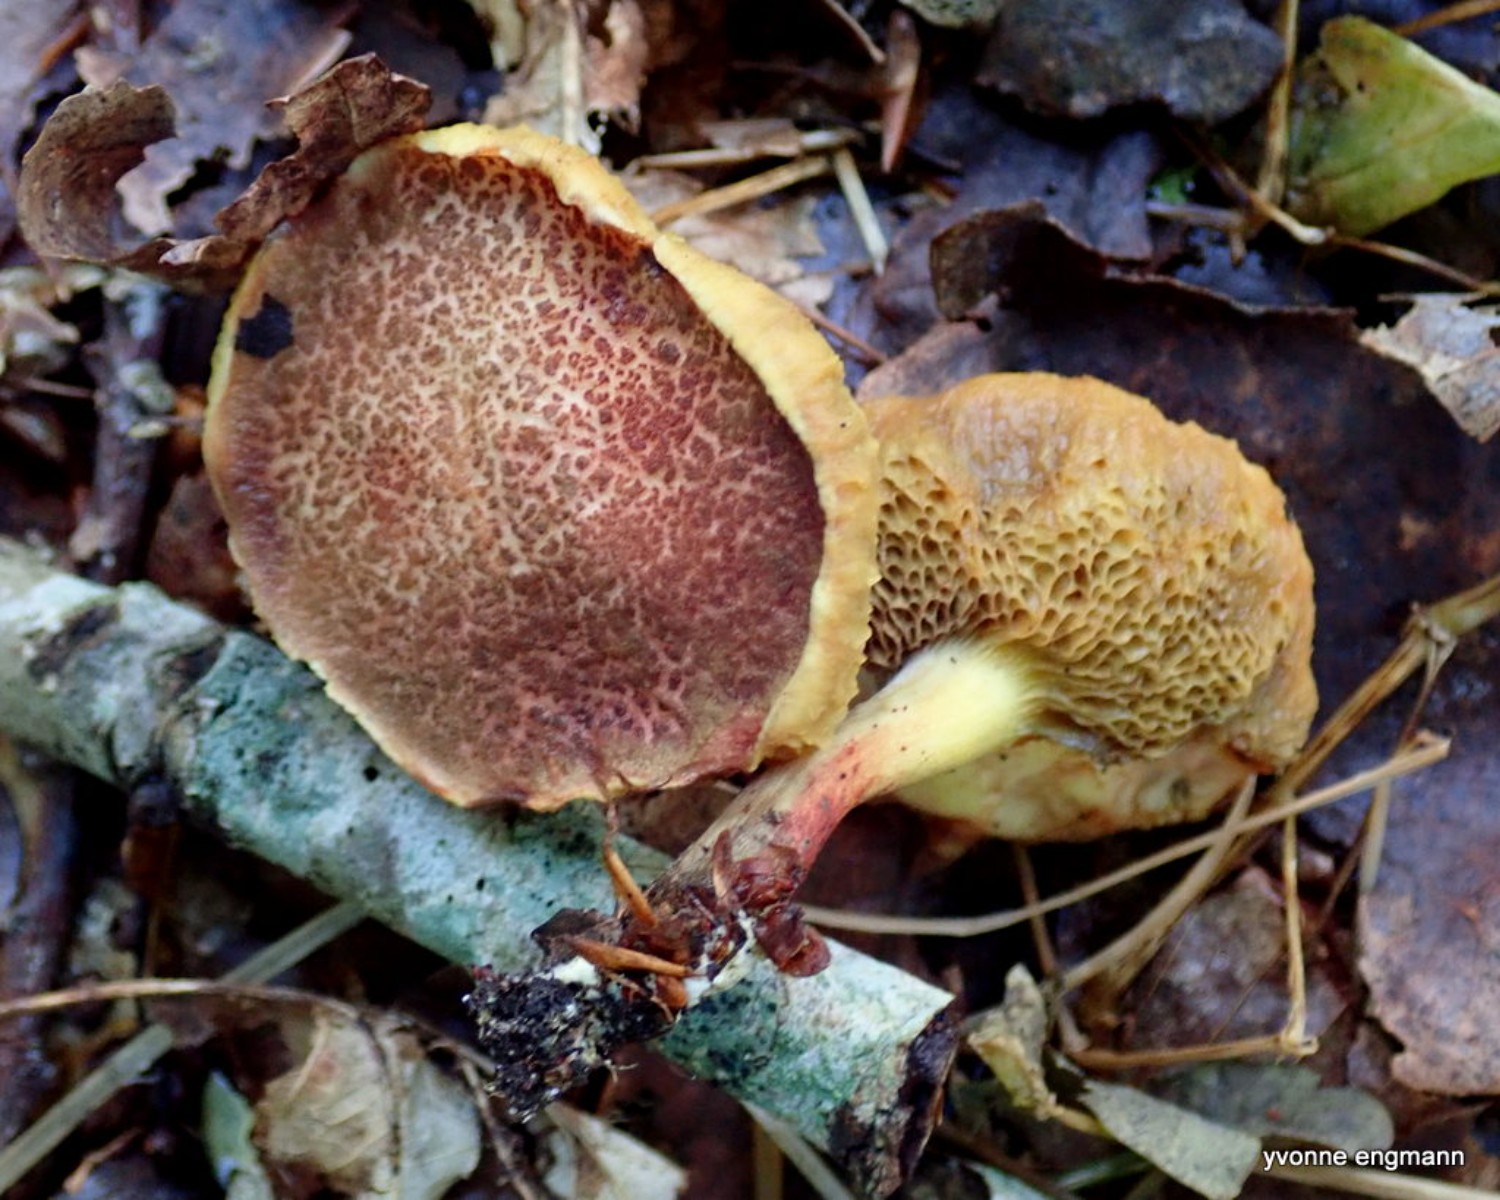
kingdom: Fungi
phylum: Basidiomycota
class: Agaricomycetes
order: Boletales
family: Boletaceae
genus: Xerocomellus
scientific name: Xerocomellus chrysenteron
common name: rødsprukken rørhat
